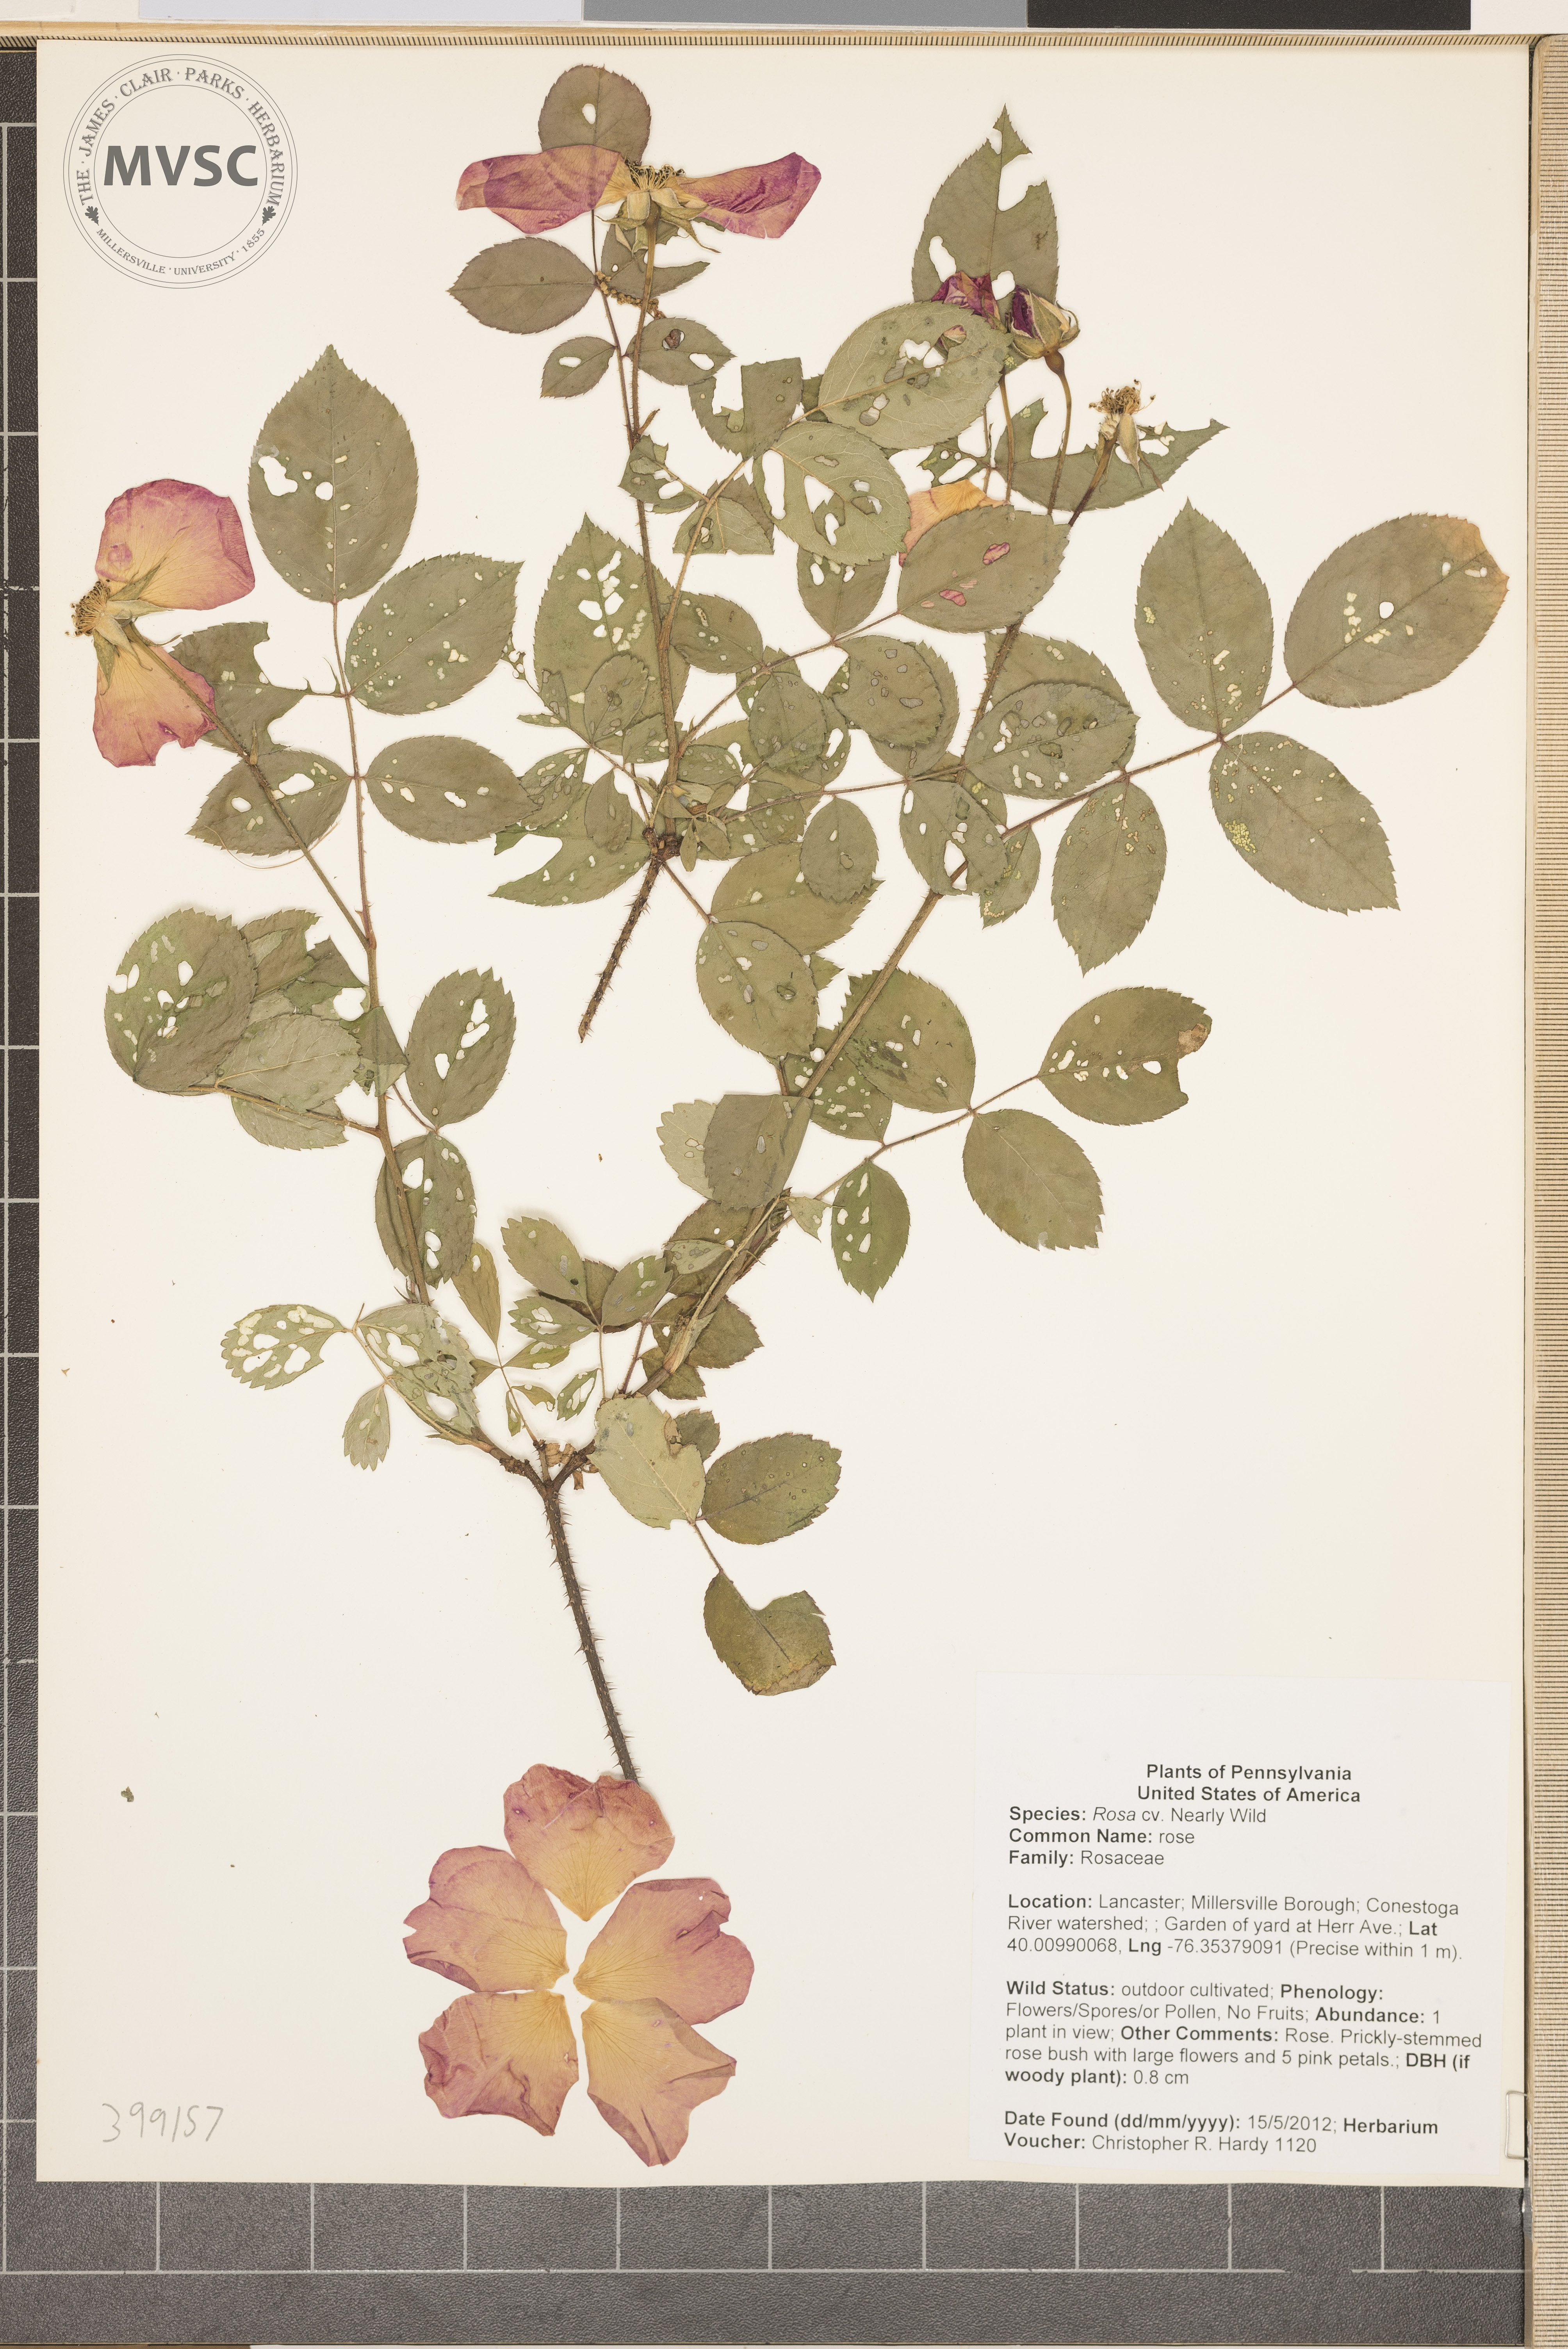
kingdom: Plantae
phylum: Tracheophyta
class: Magnoliopsida
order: Rosales
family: Rosaceae
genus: Rosa
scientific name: Rosa
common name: rose
